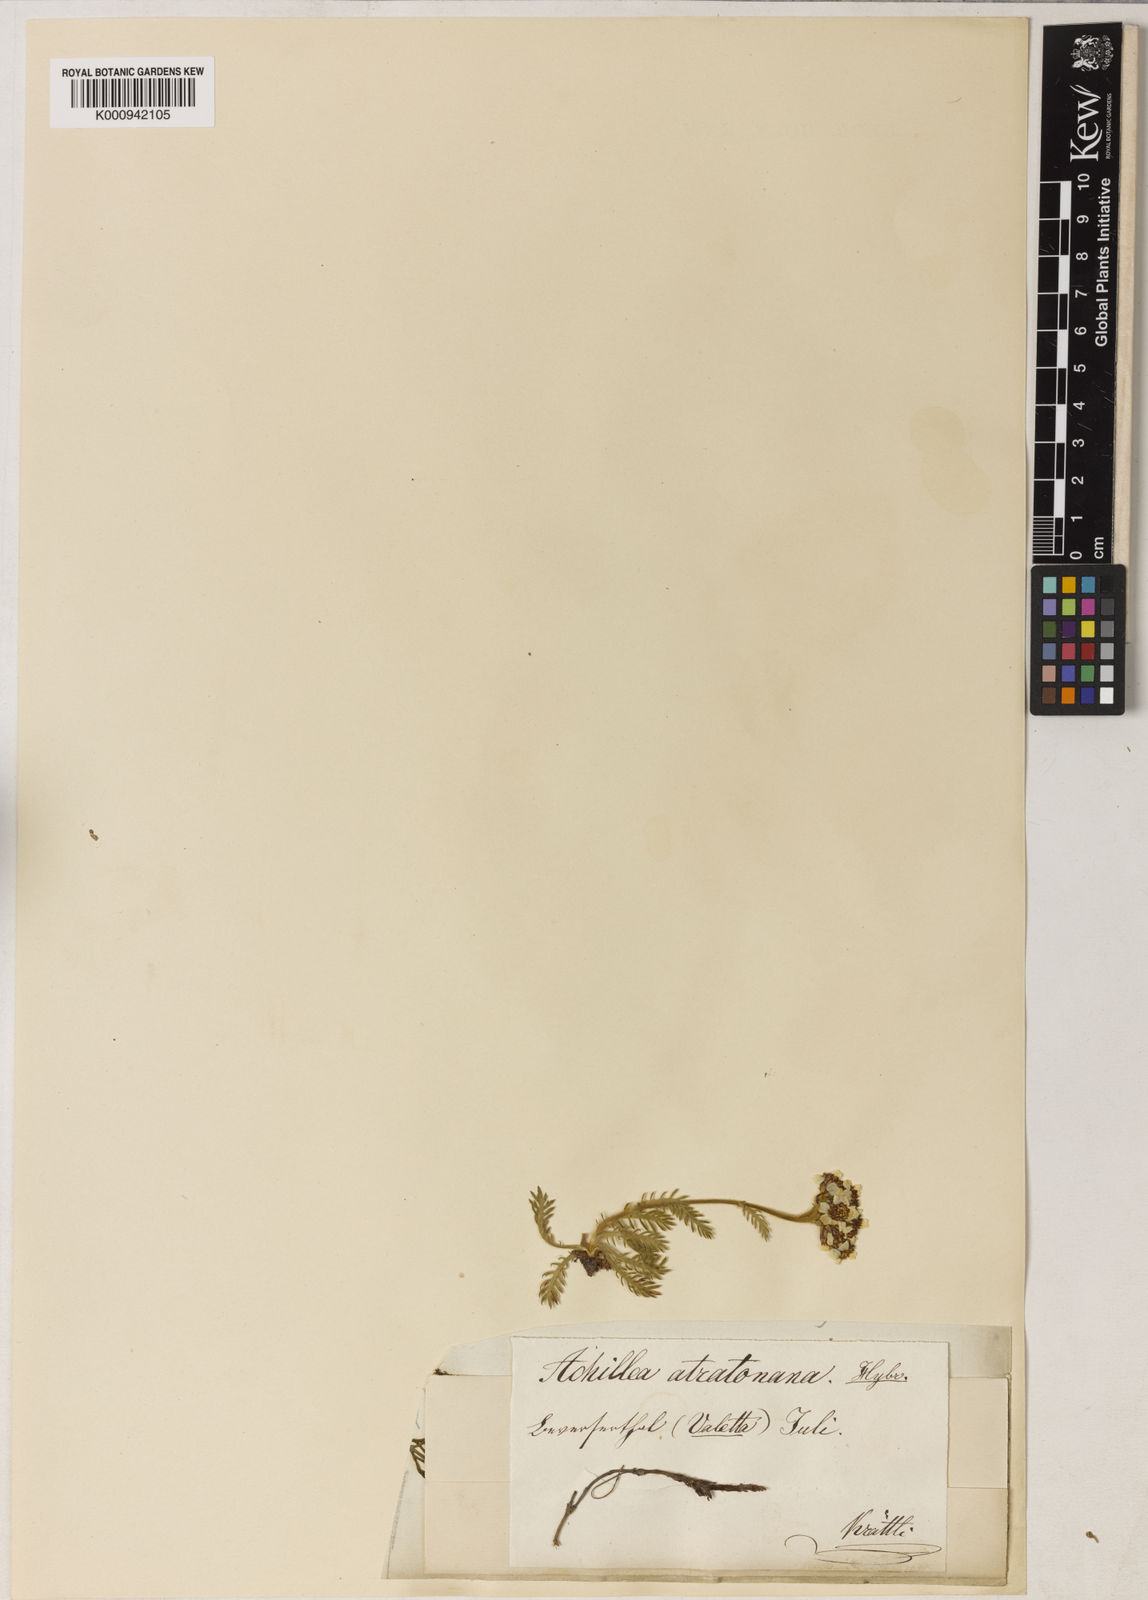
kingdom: Plantae
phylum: Tracheophyta
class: Magnoliopsida
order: Asterales
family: Asteraceae
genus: Achillea
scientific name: Achillea atrata
